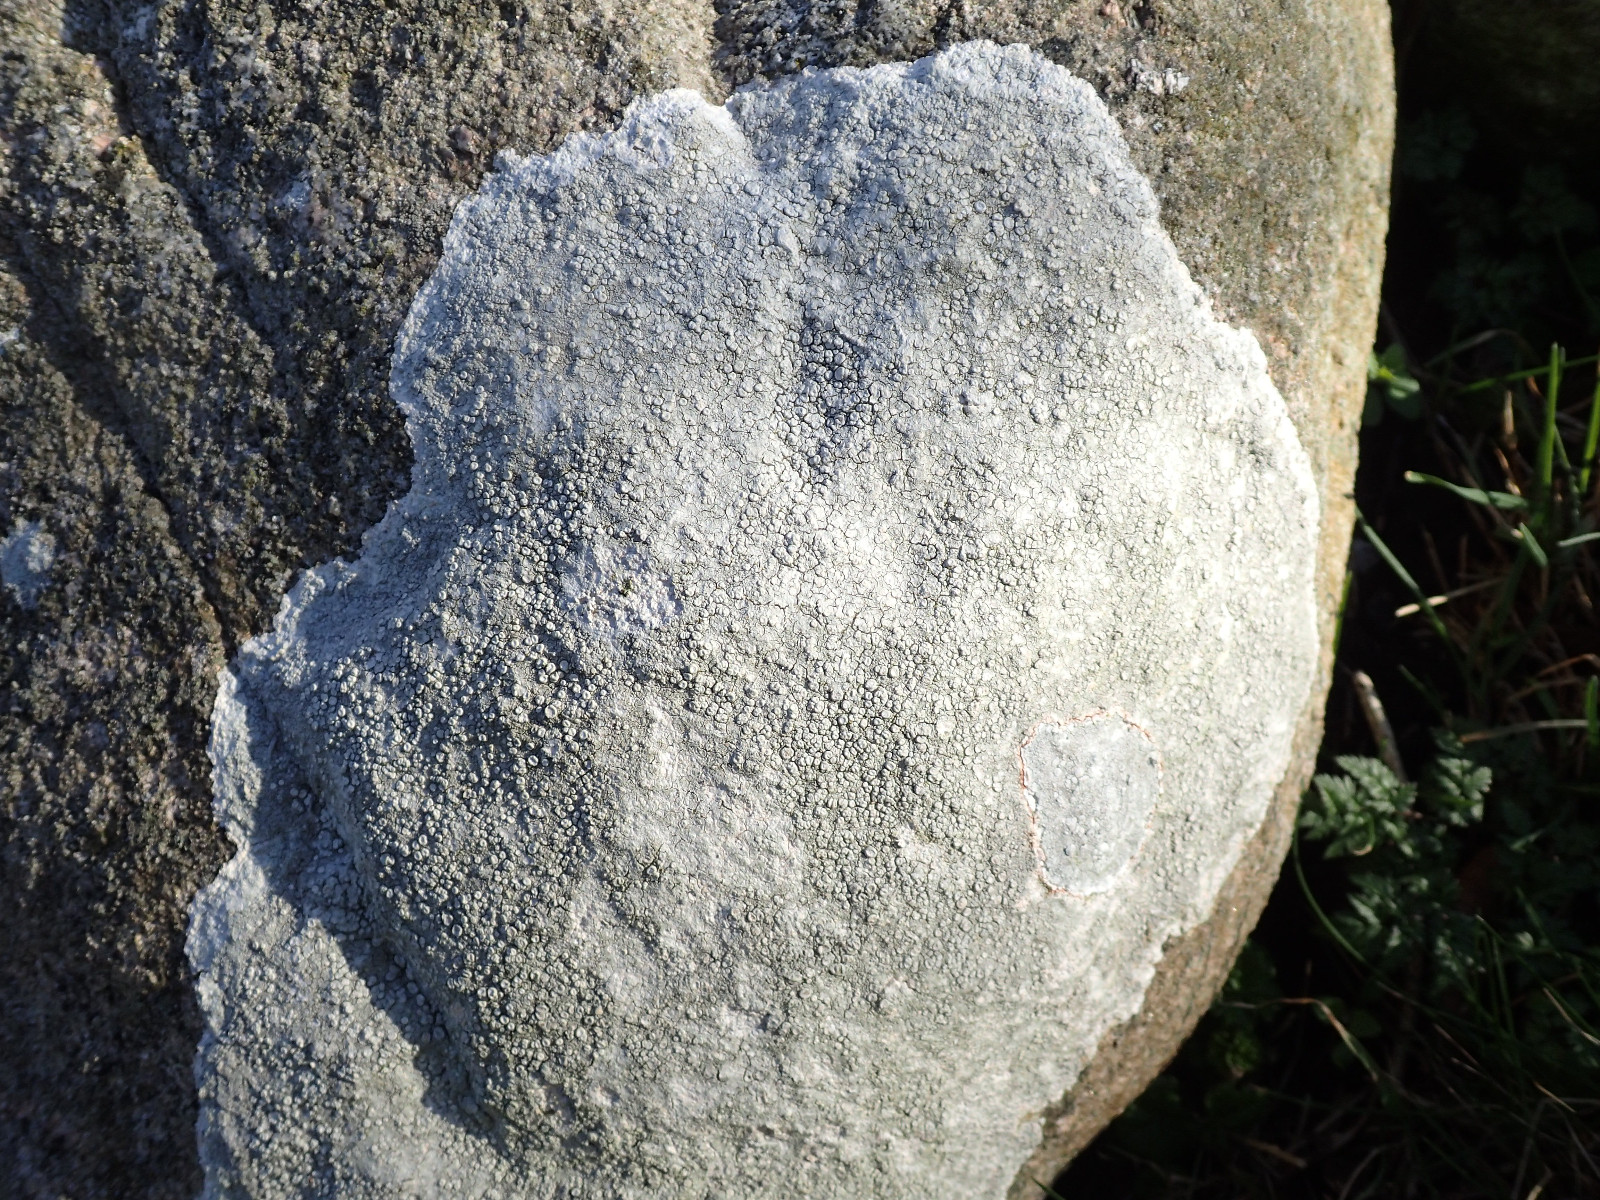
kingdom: Fungi
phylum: Ascomycota
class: Lecanoromycetes
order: Pertusariales
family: Ochrolechiaceae
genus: Ochrolechia
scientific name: Ochrolechia parella
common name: almindelig blegskivelav
